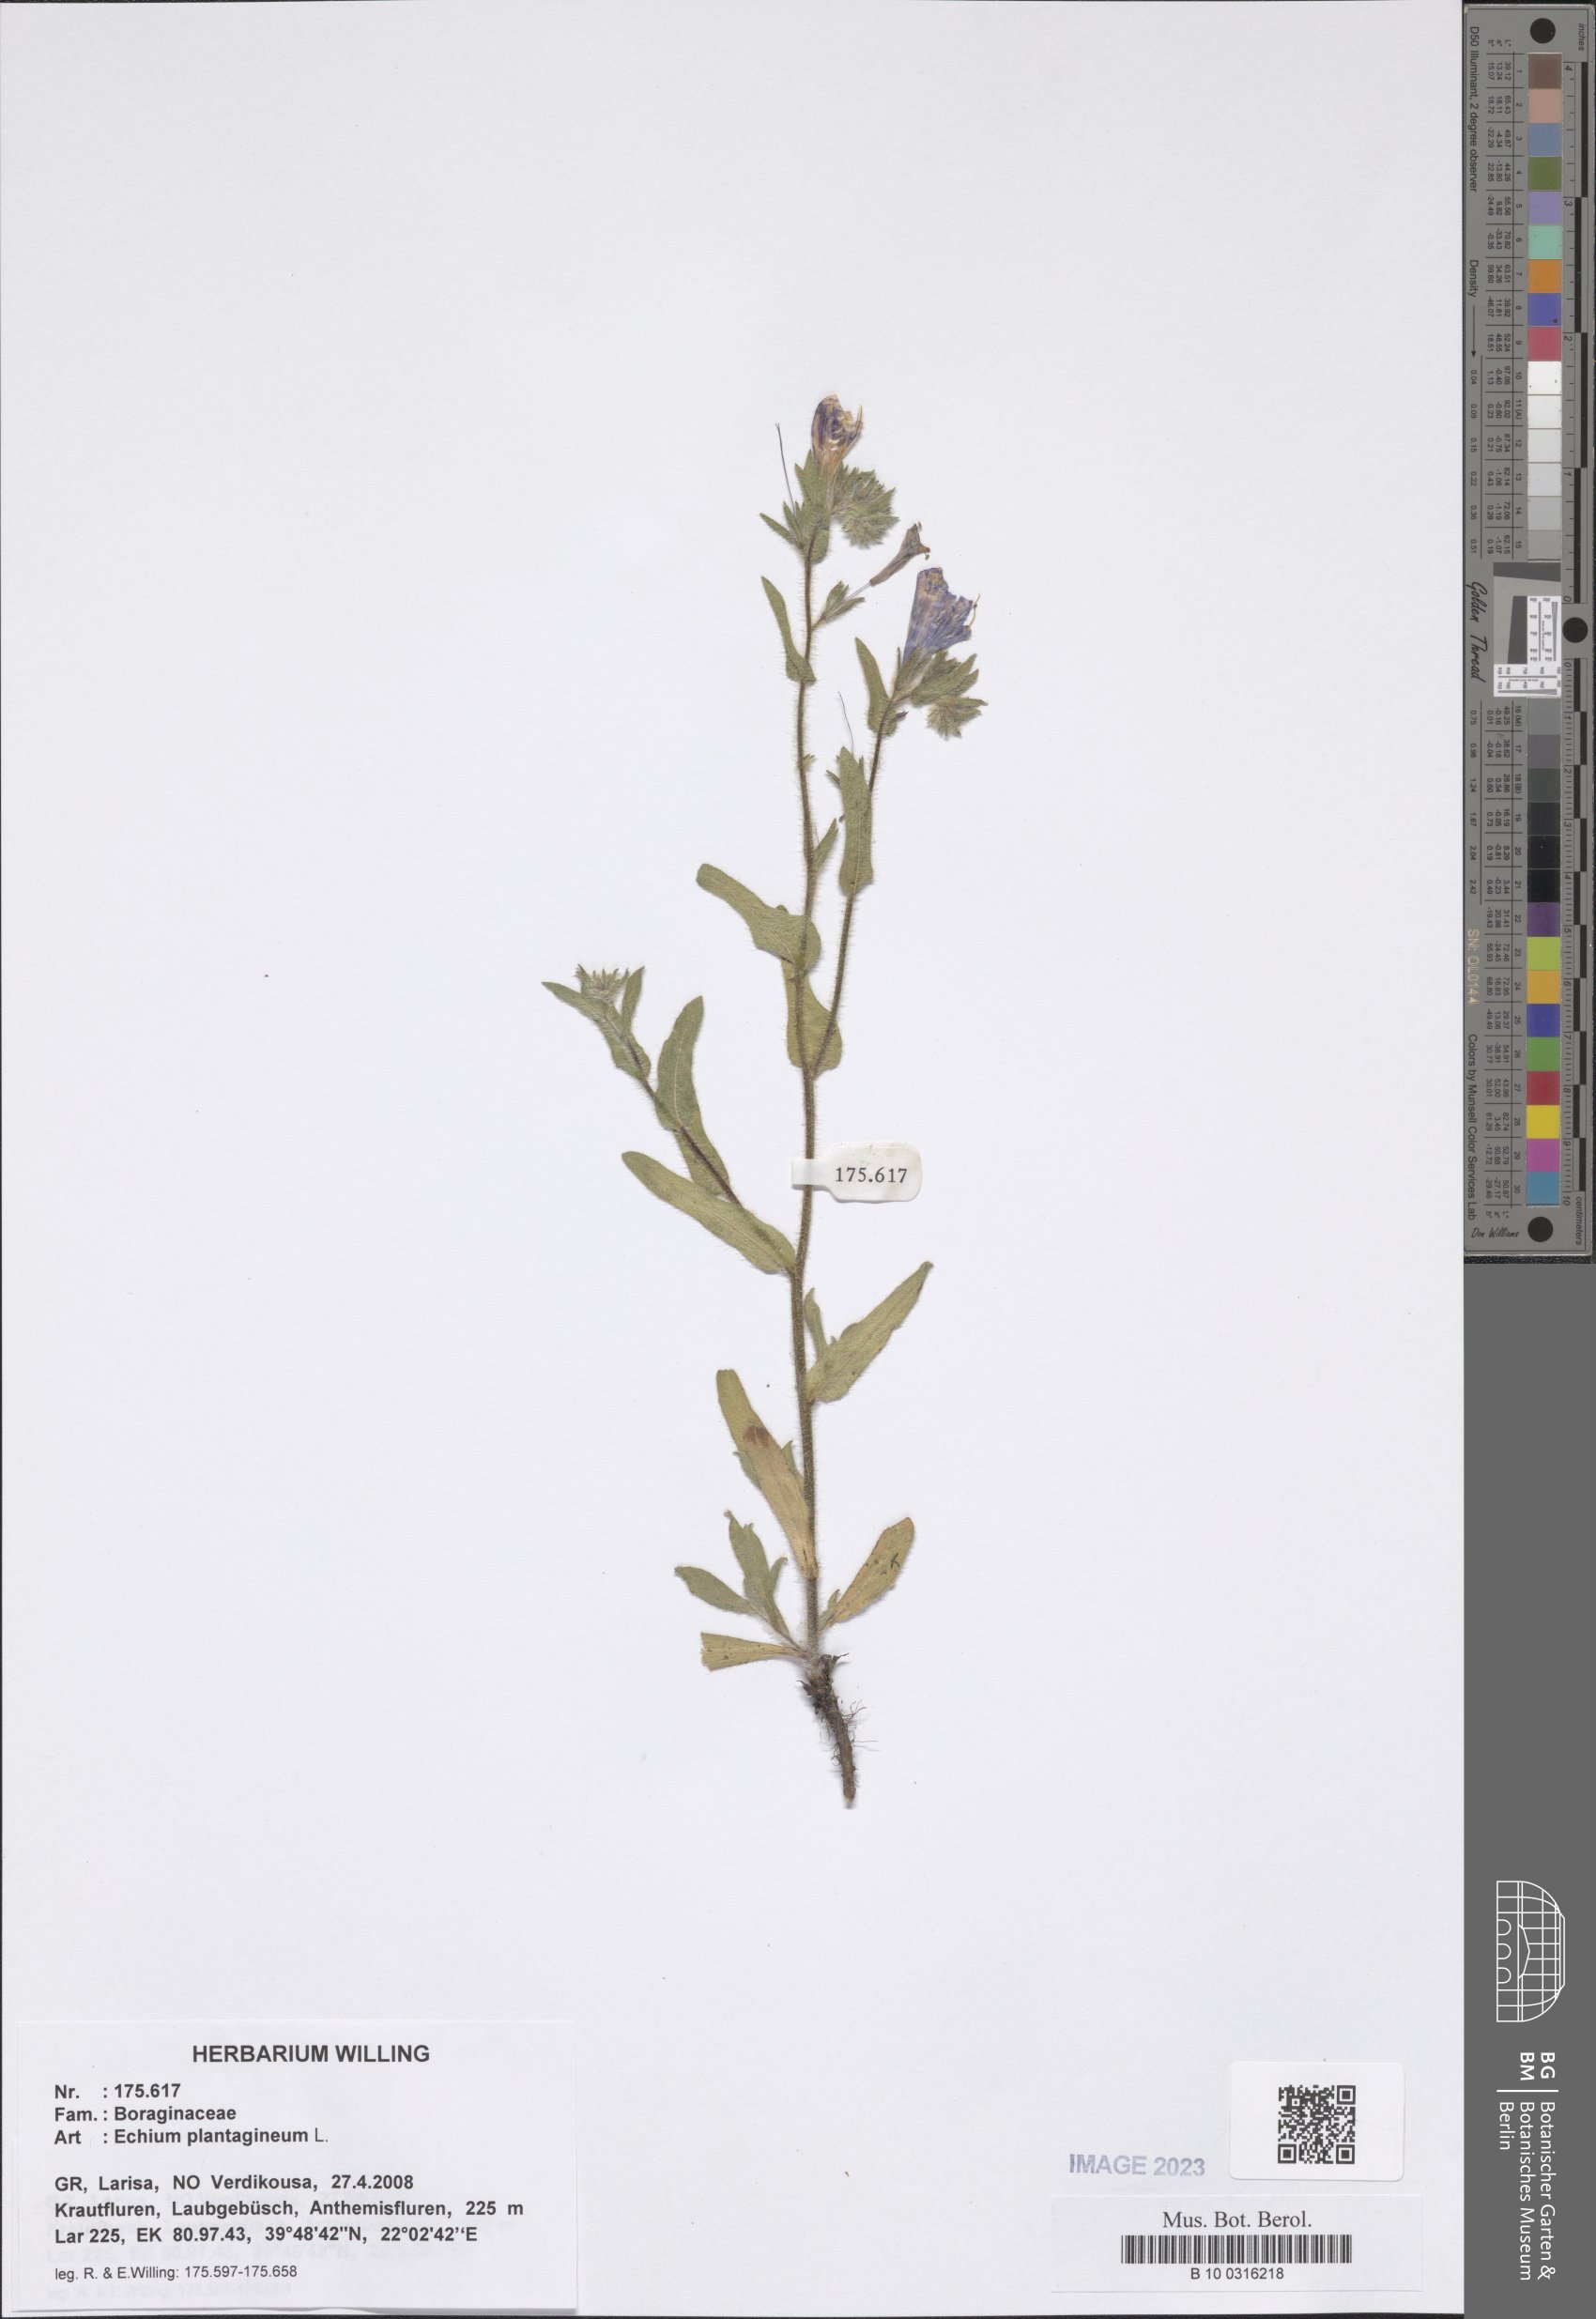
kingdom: Plantae
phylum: Tracheophyta
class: Magnoliopsida
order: Boraginales
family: Boraginaceae
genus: Echium
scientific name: Echium plantagineum
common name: Purple viper's-bugloss
